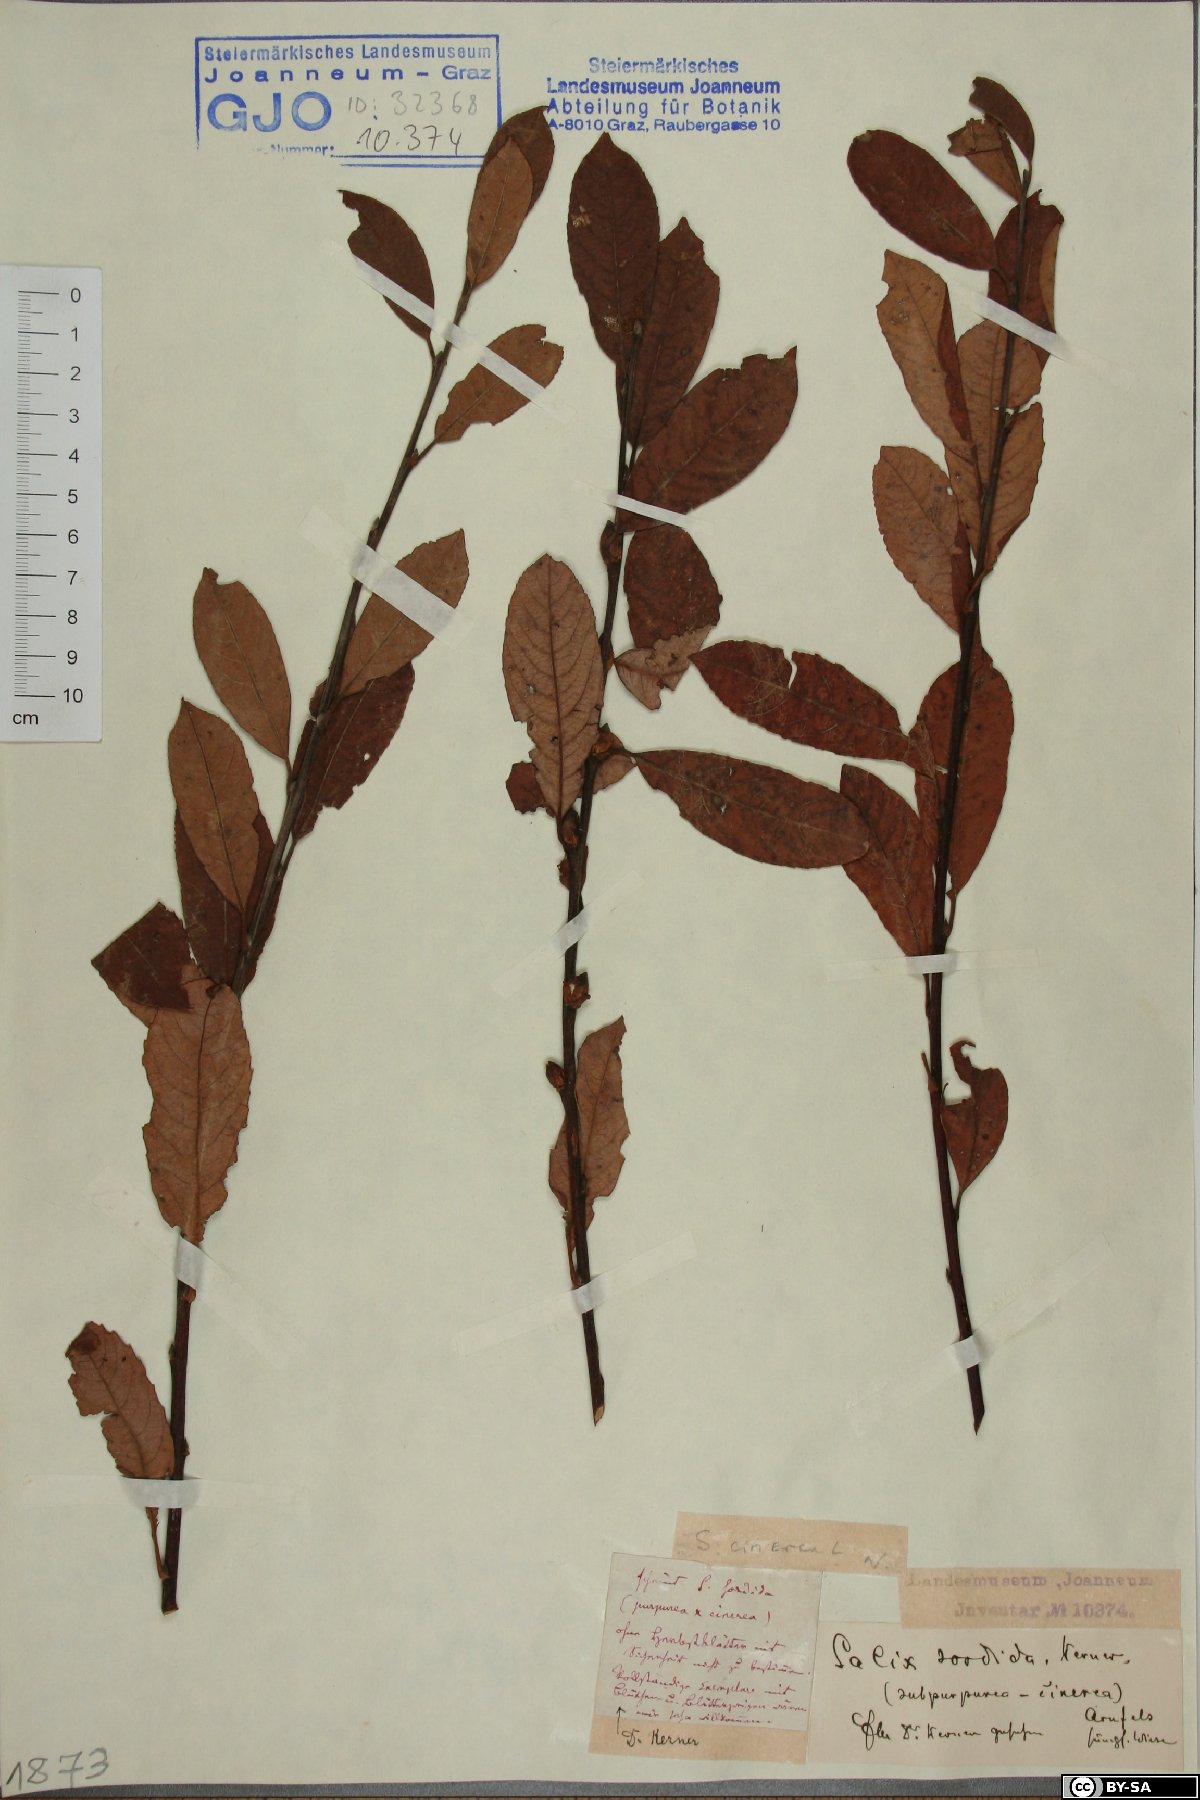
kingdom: Plantae
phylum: Tracheophyta
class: Magnoliopsida
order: Malpighiales
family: Salicaceae
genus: Salix
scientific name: Salix sordida
